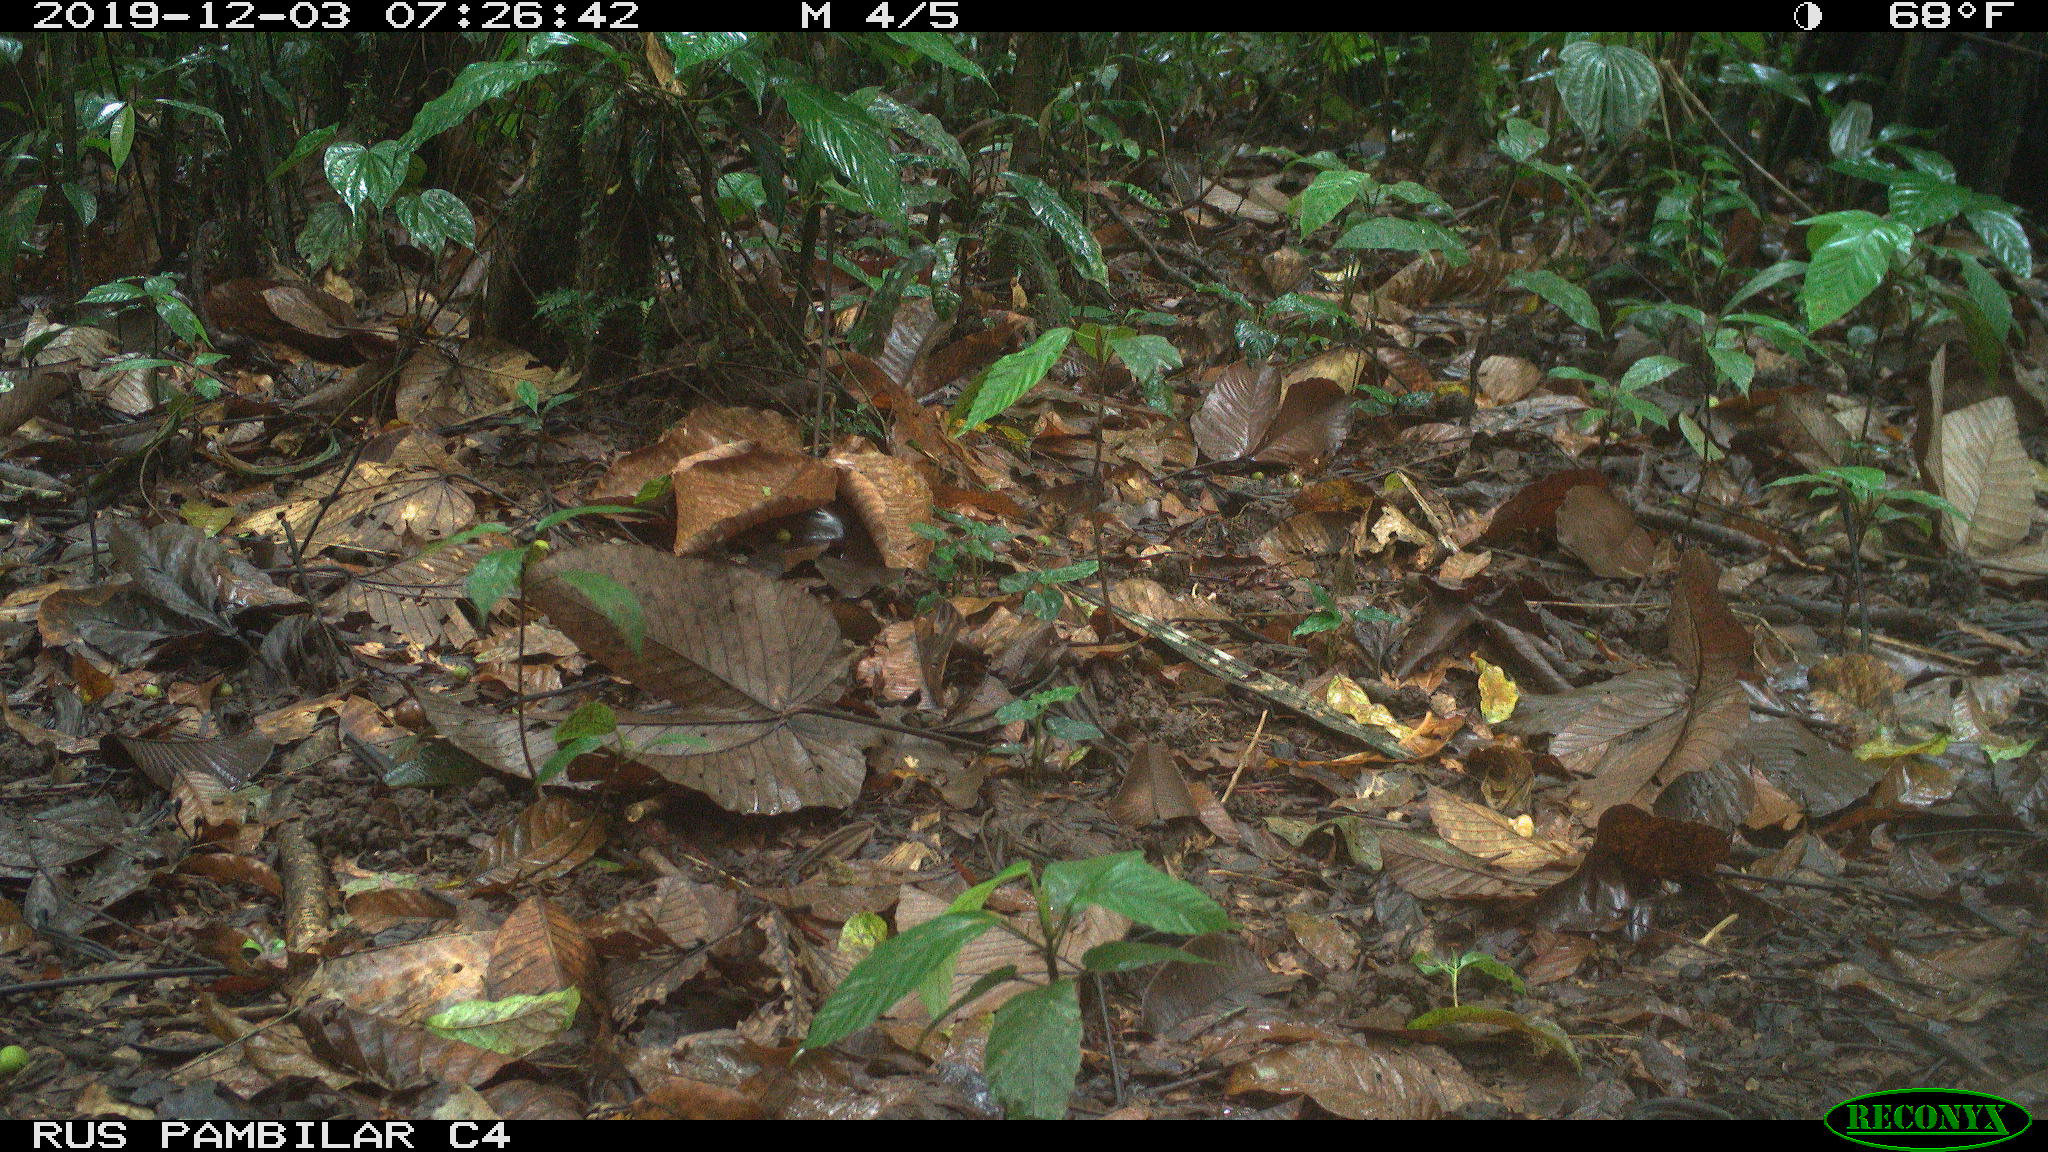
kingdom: Animalia
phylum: Chordata
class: Mammalia
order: Rodentia
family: Dasyproctidae
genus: Dasyprocta
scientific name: Dasyprocta punctata
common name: Central american agouti
